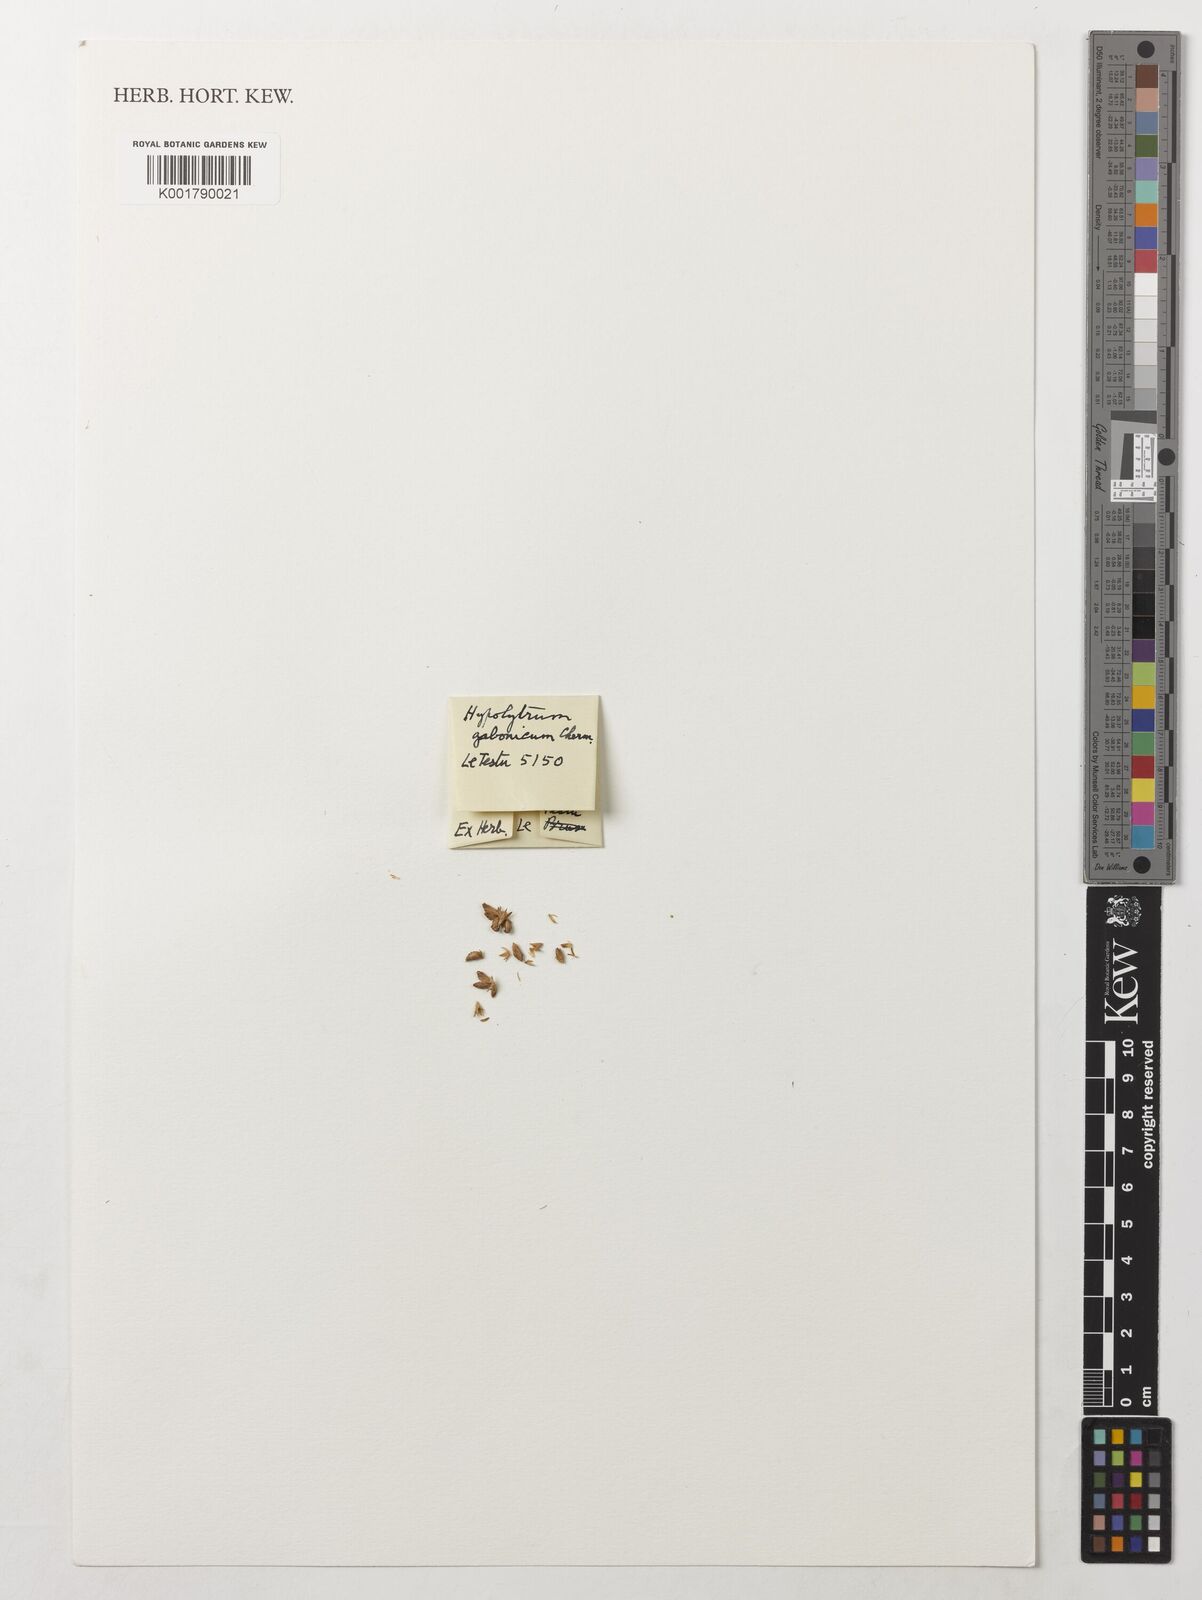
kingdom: Plantae
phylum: Tracheophyta
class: Liliopsida
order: Poales
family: Cyperaceae
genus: Hypolytrum
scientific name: Hypolytrum pynaertii
